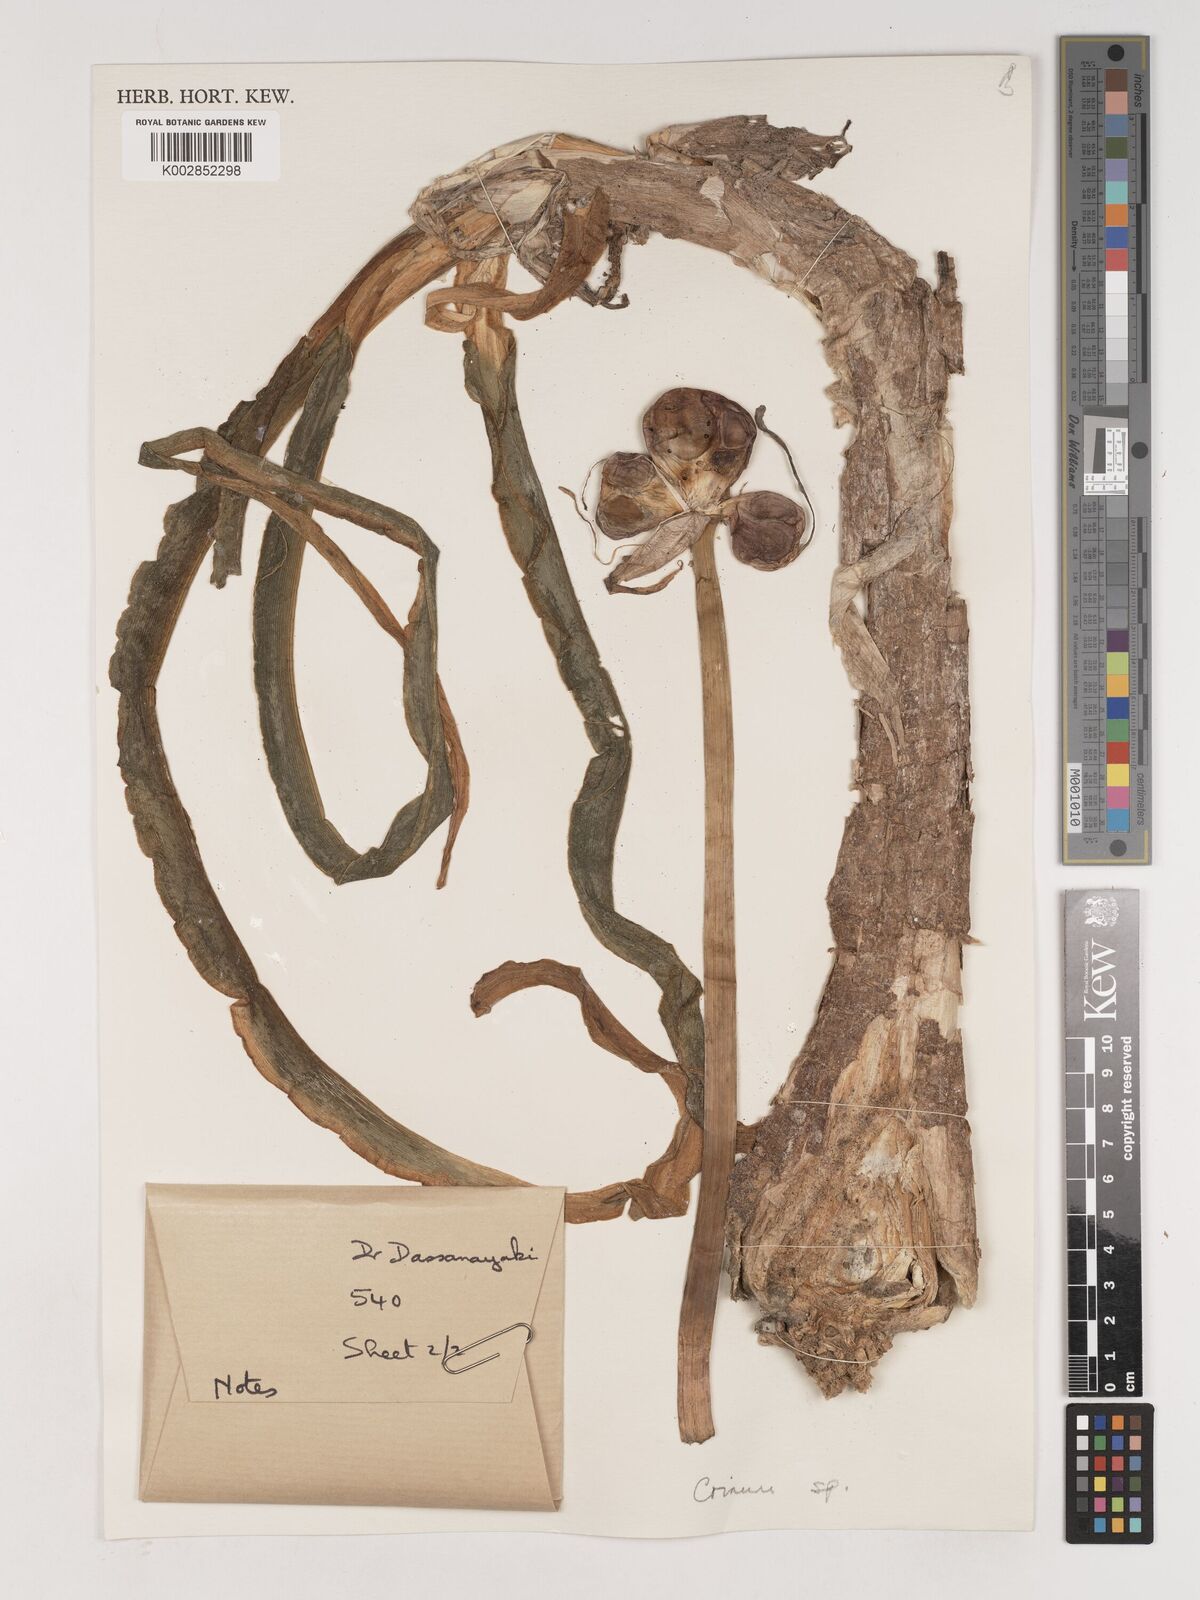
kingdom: Plantae
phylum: Tracheophyta
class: Liliopsida
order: Asparagales
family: Amaryllidaceae
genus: Crinum
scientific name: Crinum
